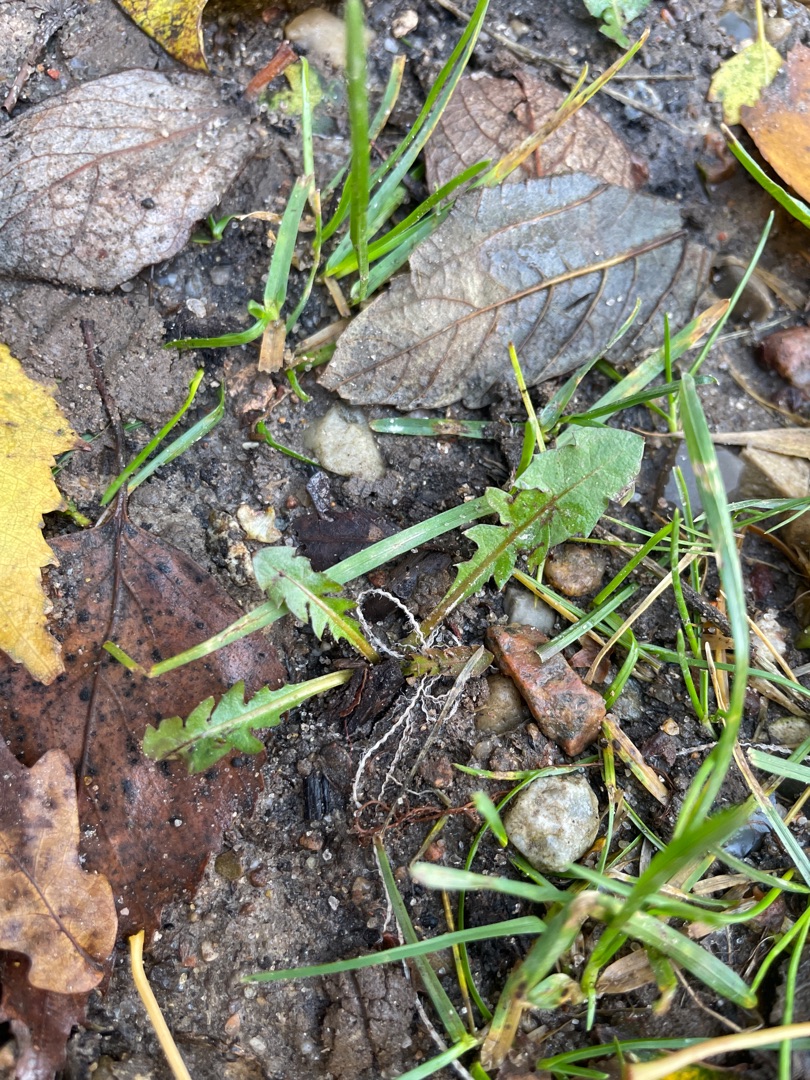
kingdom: Plantae
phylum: Tracheophyta
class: Magnoliopsida
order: Asterales
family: Asteraceae
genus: Taraxacum
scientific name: Taraxacum
